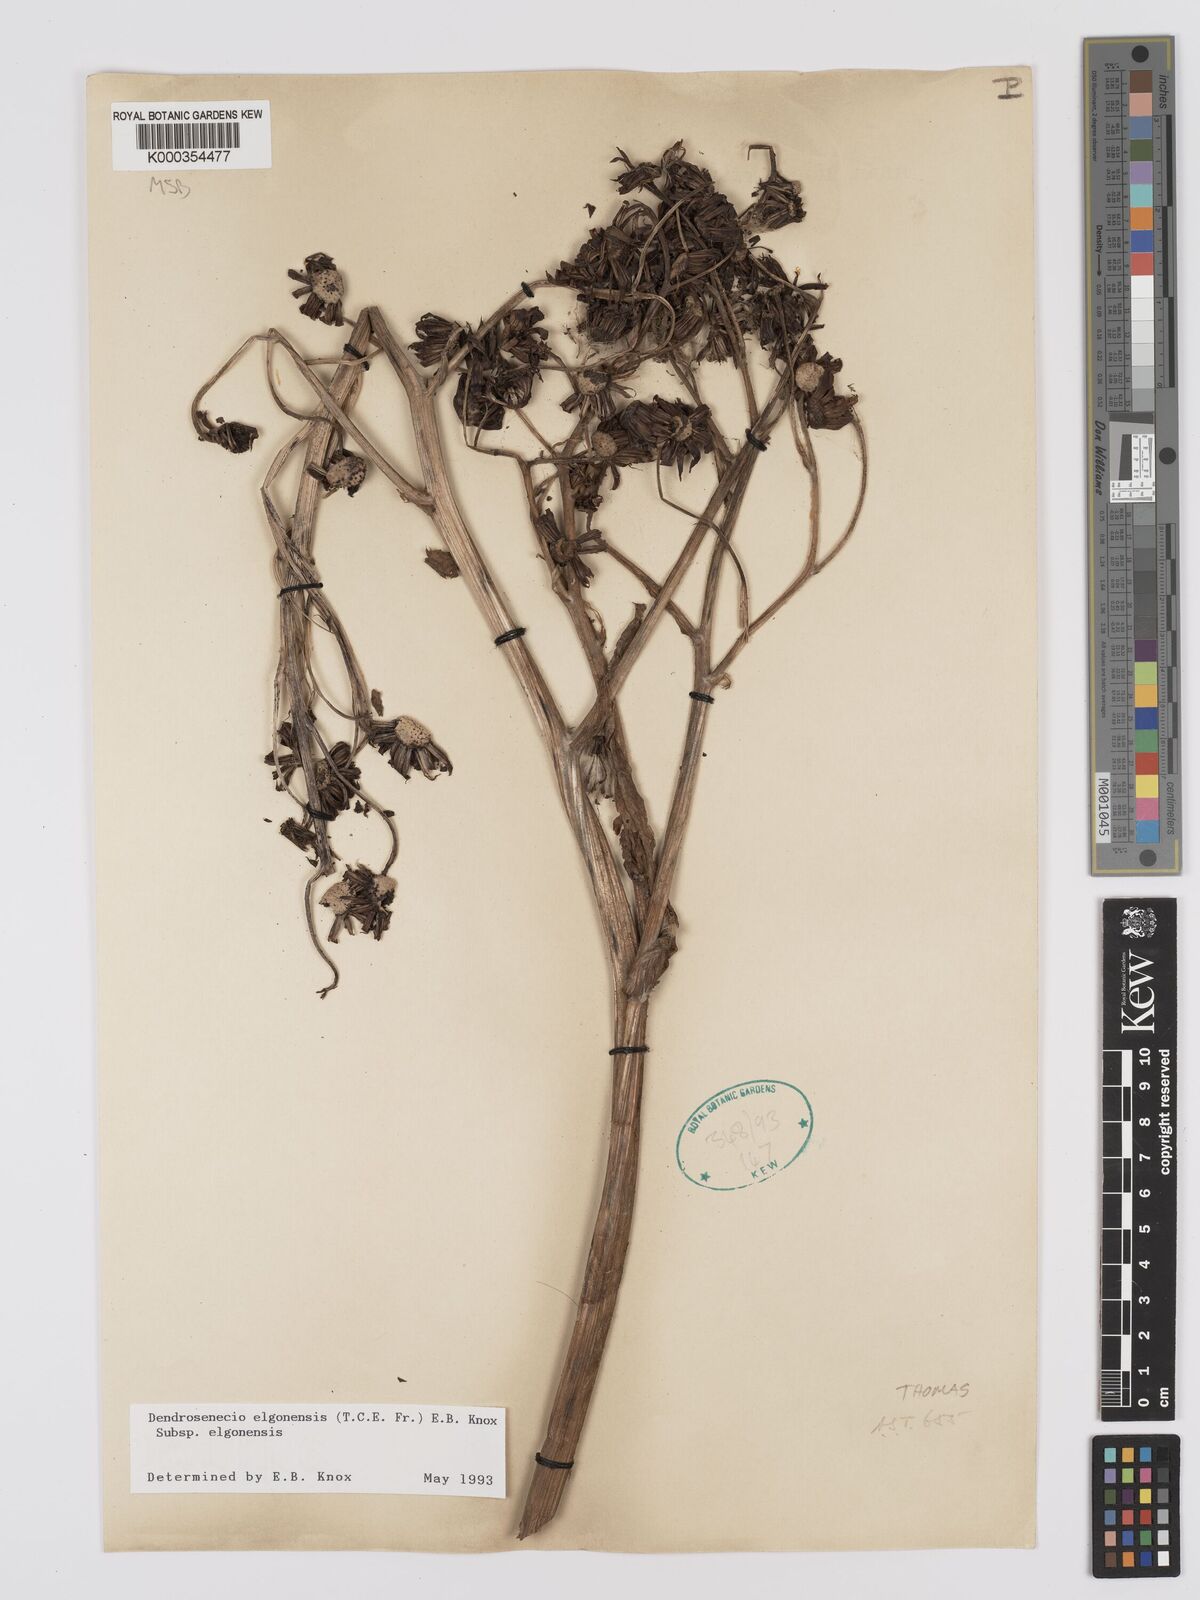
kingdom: Plantae
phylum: Tracheophyta
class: Magnoliopsida
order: Asterales
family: Asteraceae
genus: Dendrosenecio
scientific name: Dendrosenecio elgonensis
